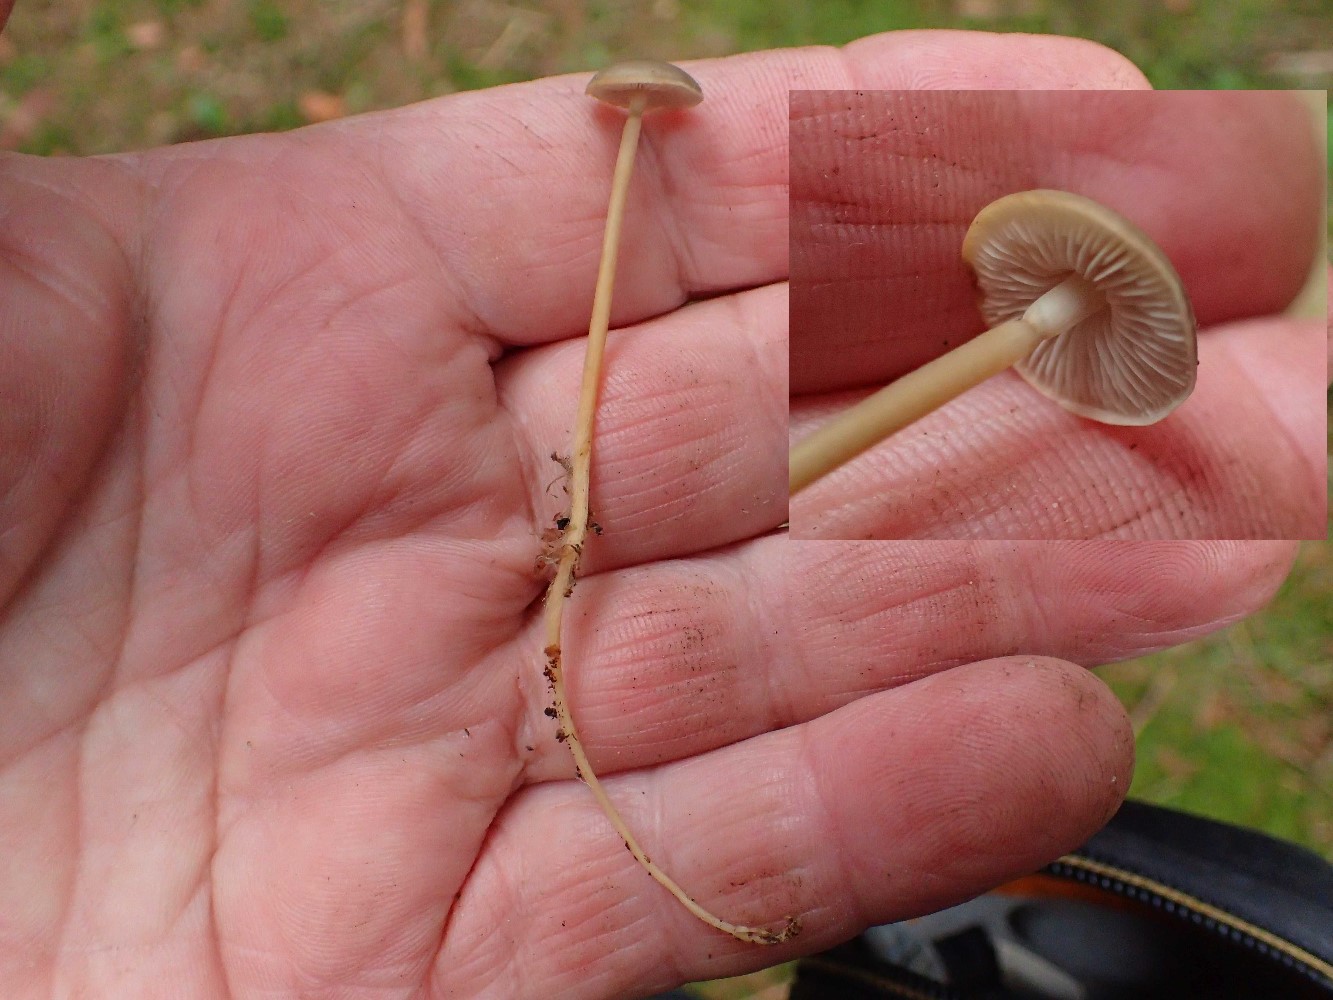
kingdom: Fungi
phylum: Basidiomycota
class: Agaricomycetes
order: Agaricales
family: Physalacriaceae
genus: Strobilurus
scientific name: Strobilurus esculentus
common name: gran-koglehat
